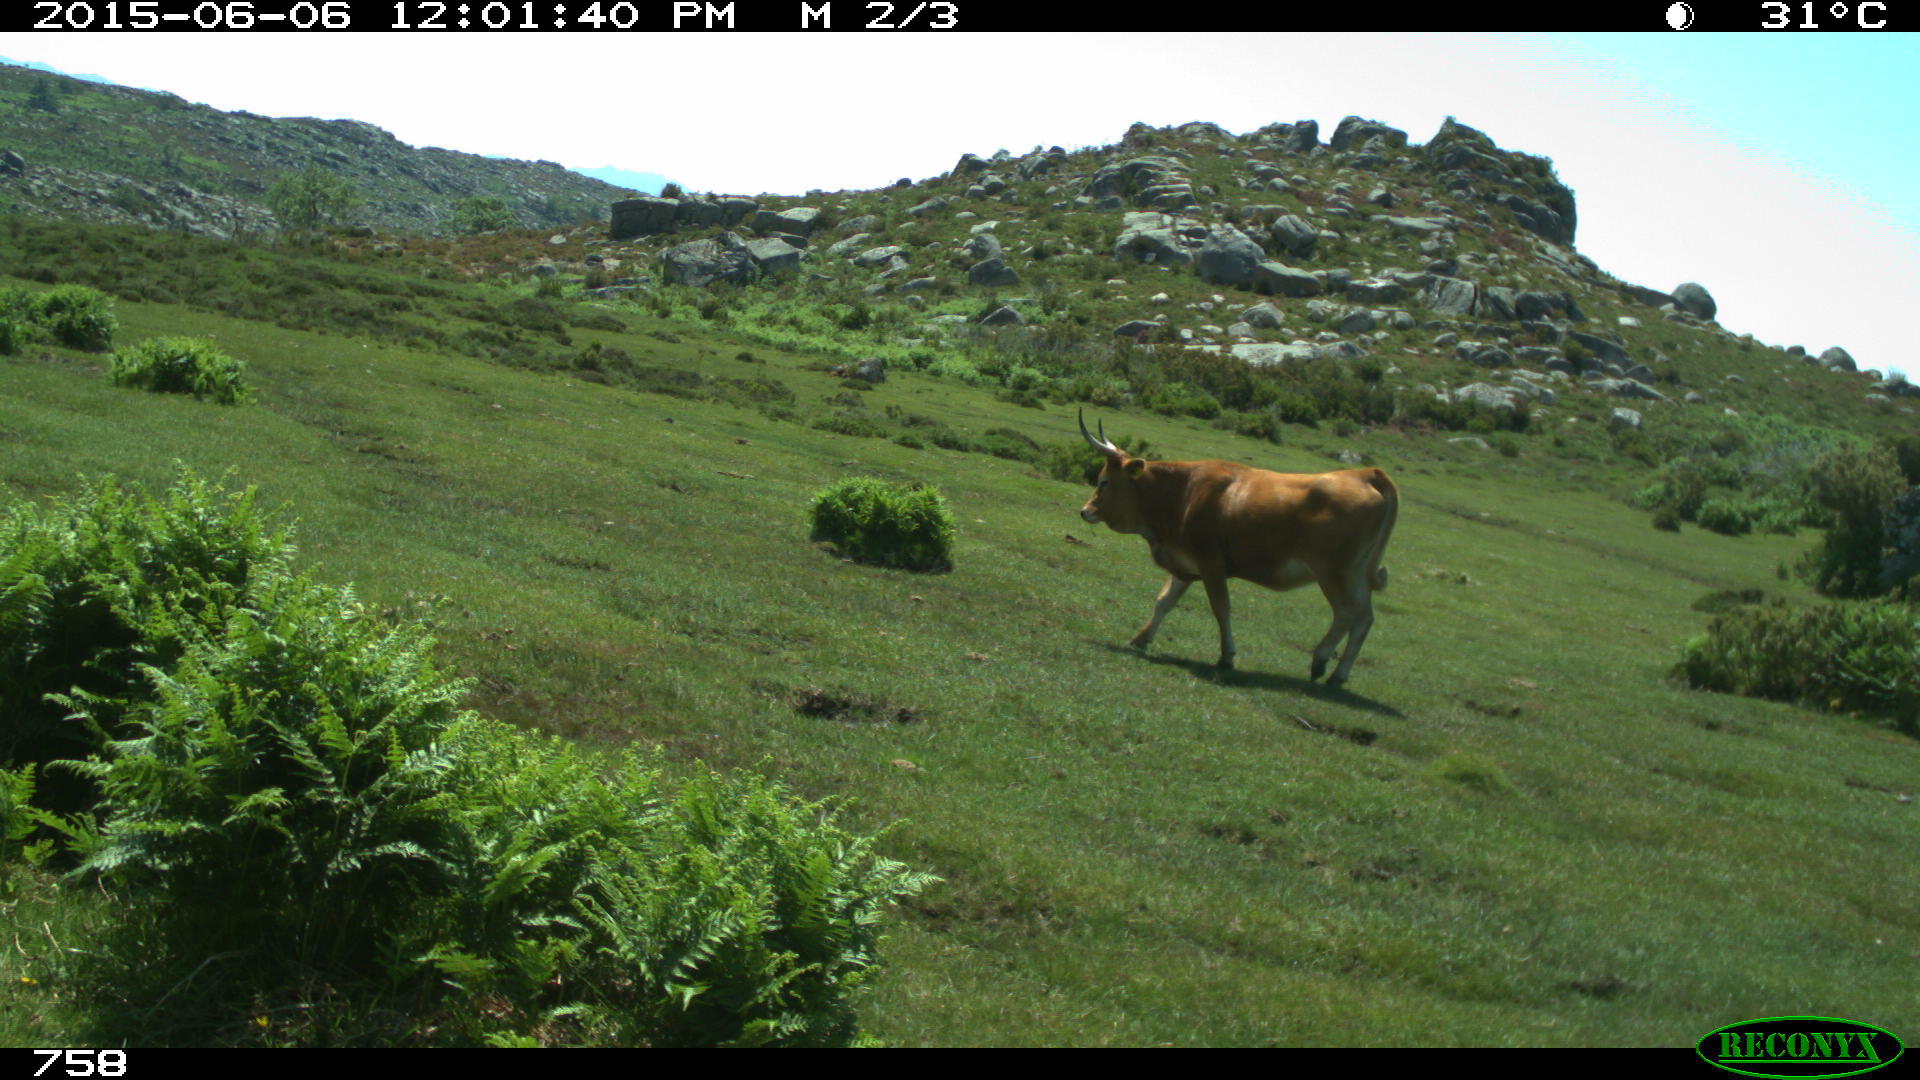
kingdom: Animalia
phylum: Chordata
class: Mammalia
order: Artiodactyla
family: Bovidae
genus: Bos
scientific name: Bos taurus
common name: Domesticated cattle
